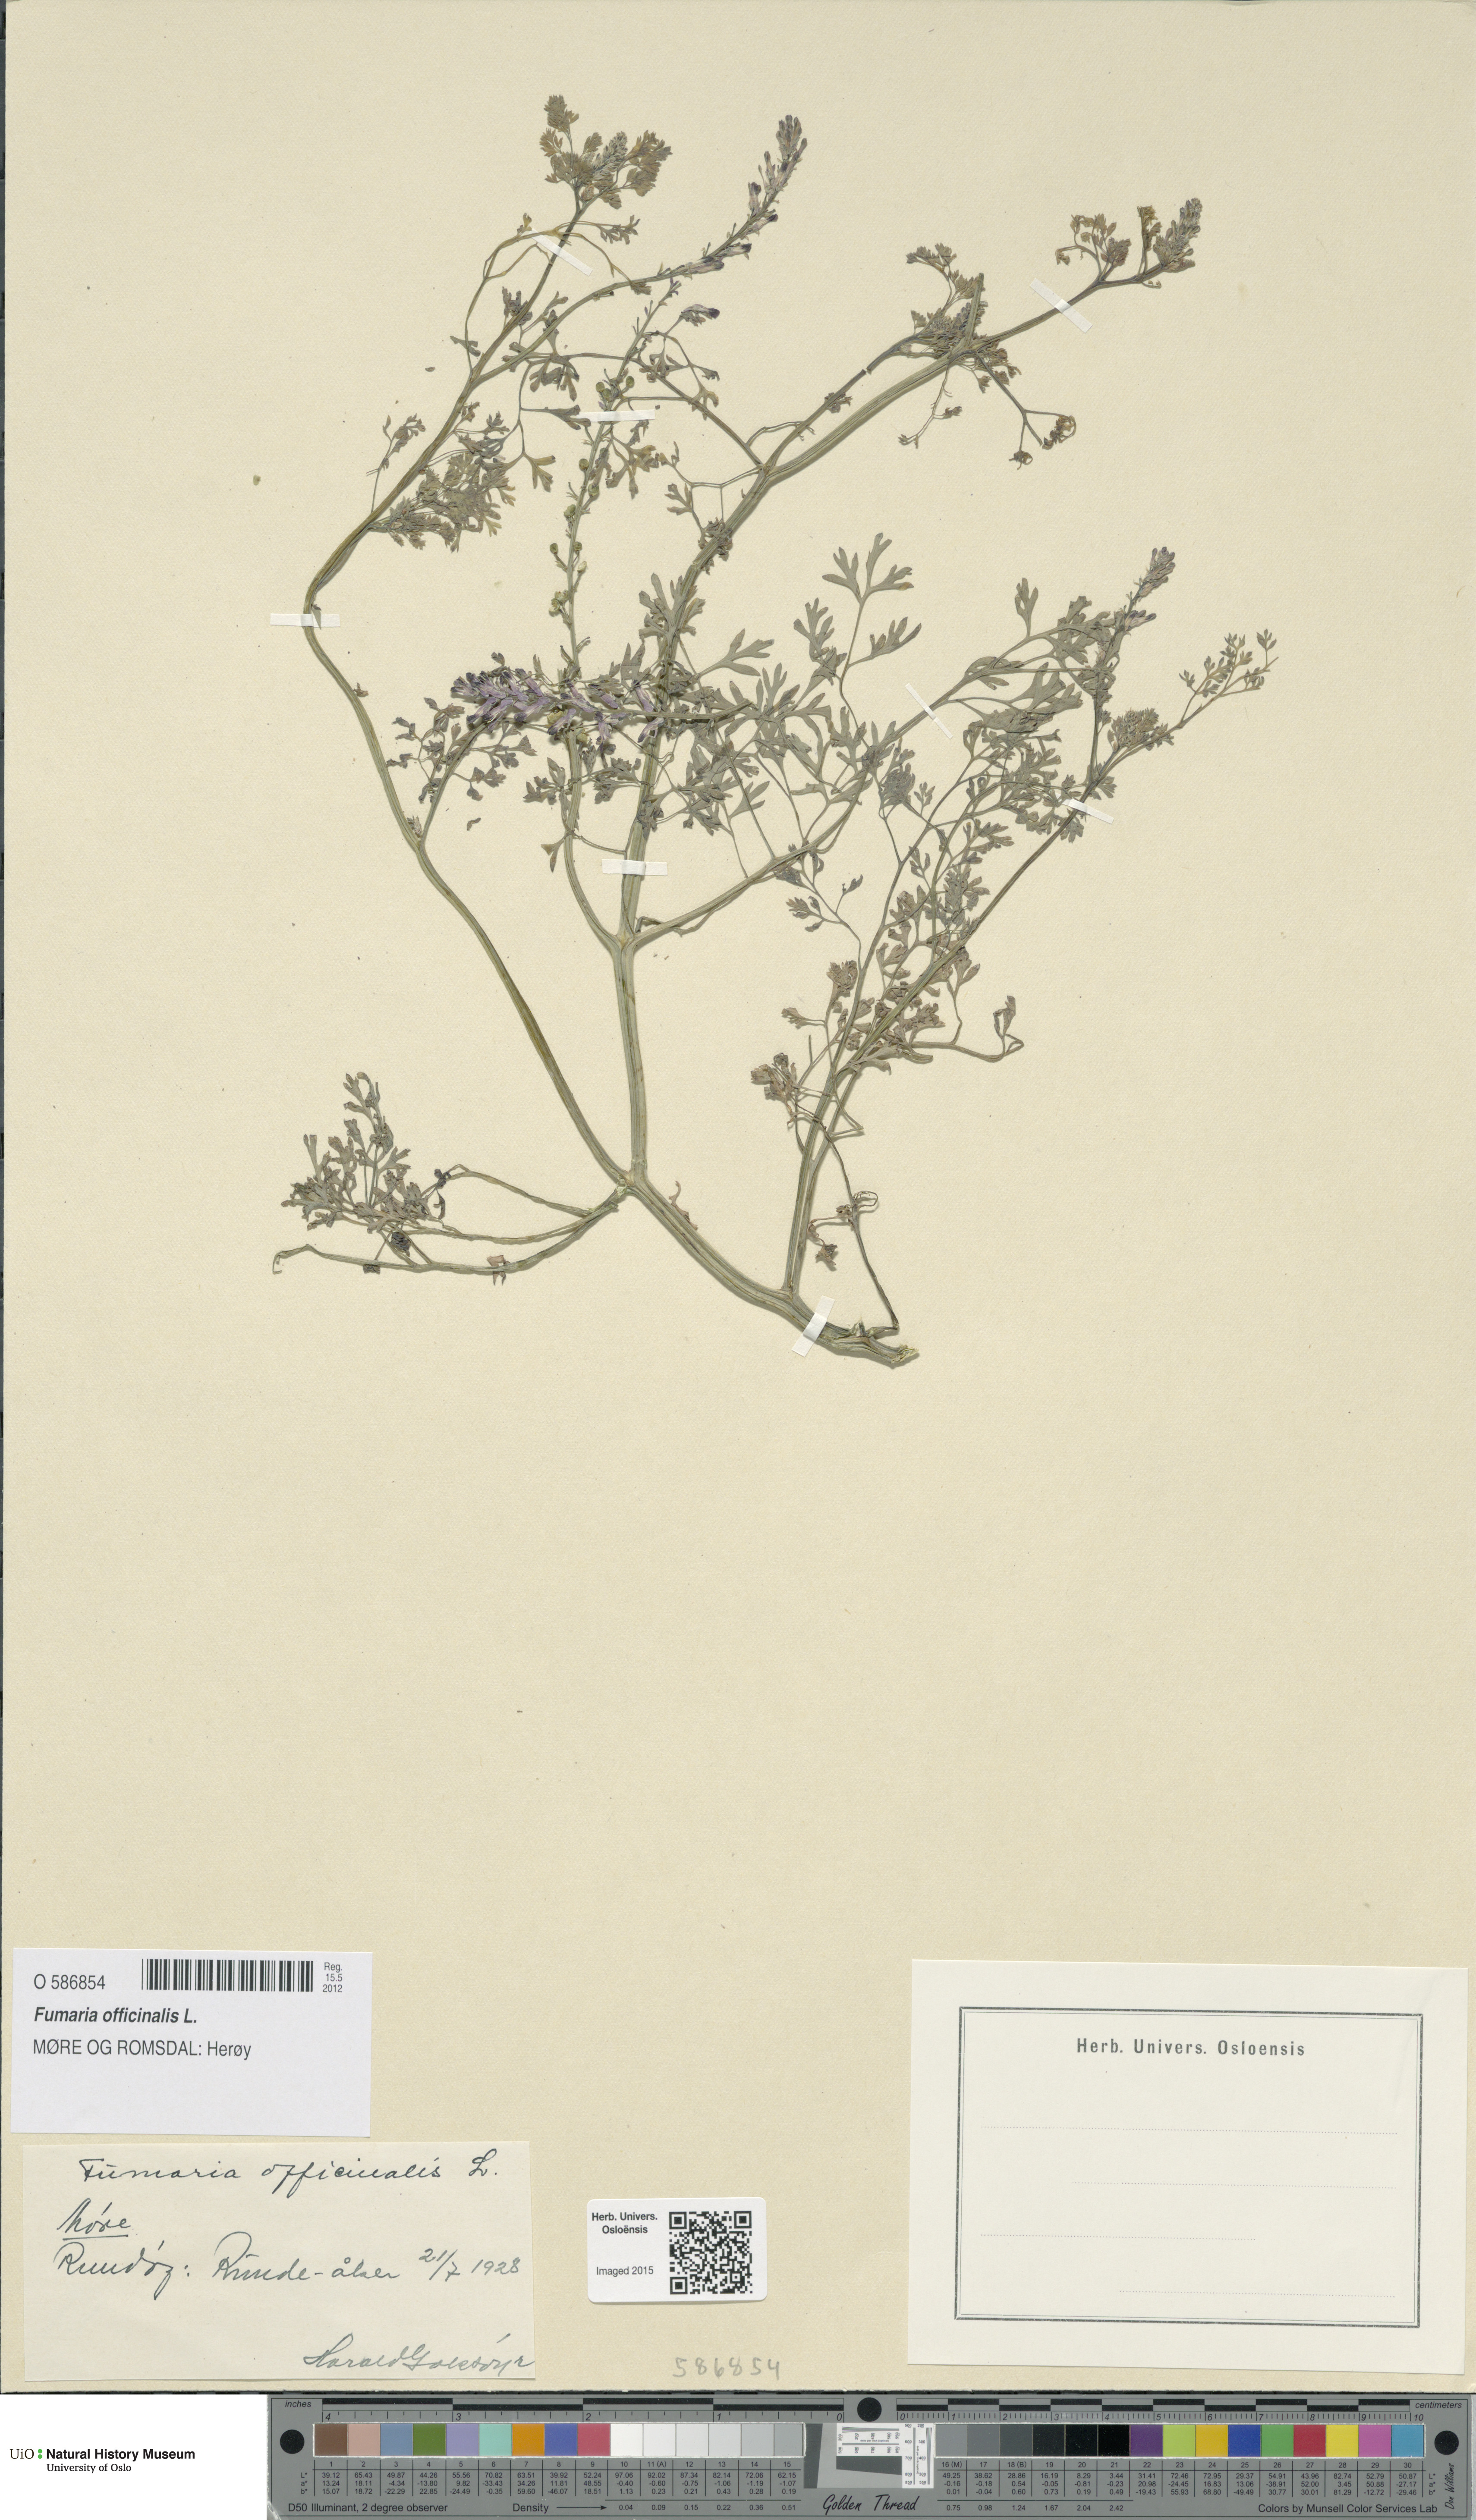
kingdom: Plantae
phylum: Tracheophyta
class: Magnoliopsida
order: Ranunculales
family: Papaveraceae
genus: Fumaria
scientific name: Fumaria officinalis
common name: Common fumitory
